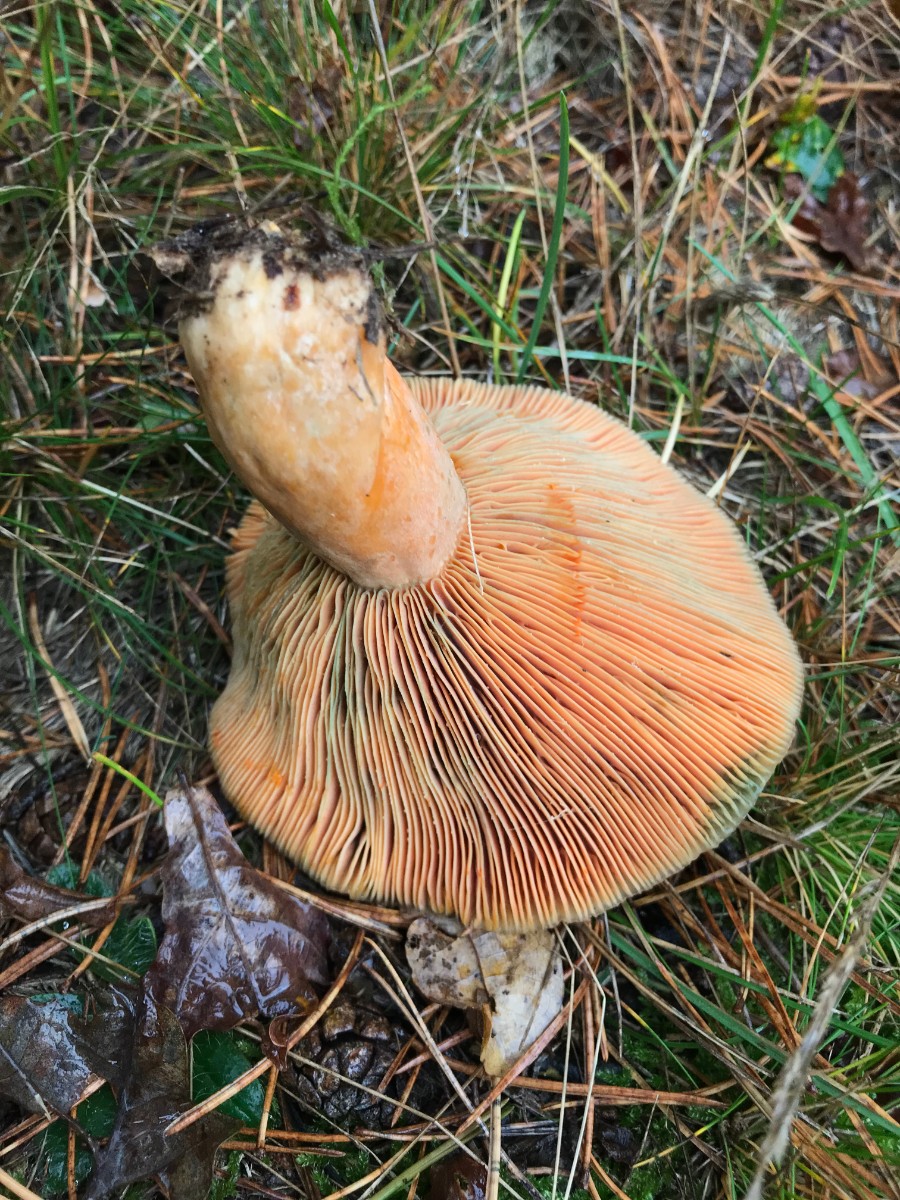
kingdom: Fungi
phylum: Basidiomycota
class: Agaricomycetes
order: Russulales
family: Russulaceae
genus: Lactarius
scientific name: Lactarius deliciosus
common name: velsmagende mælkehat
